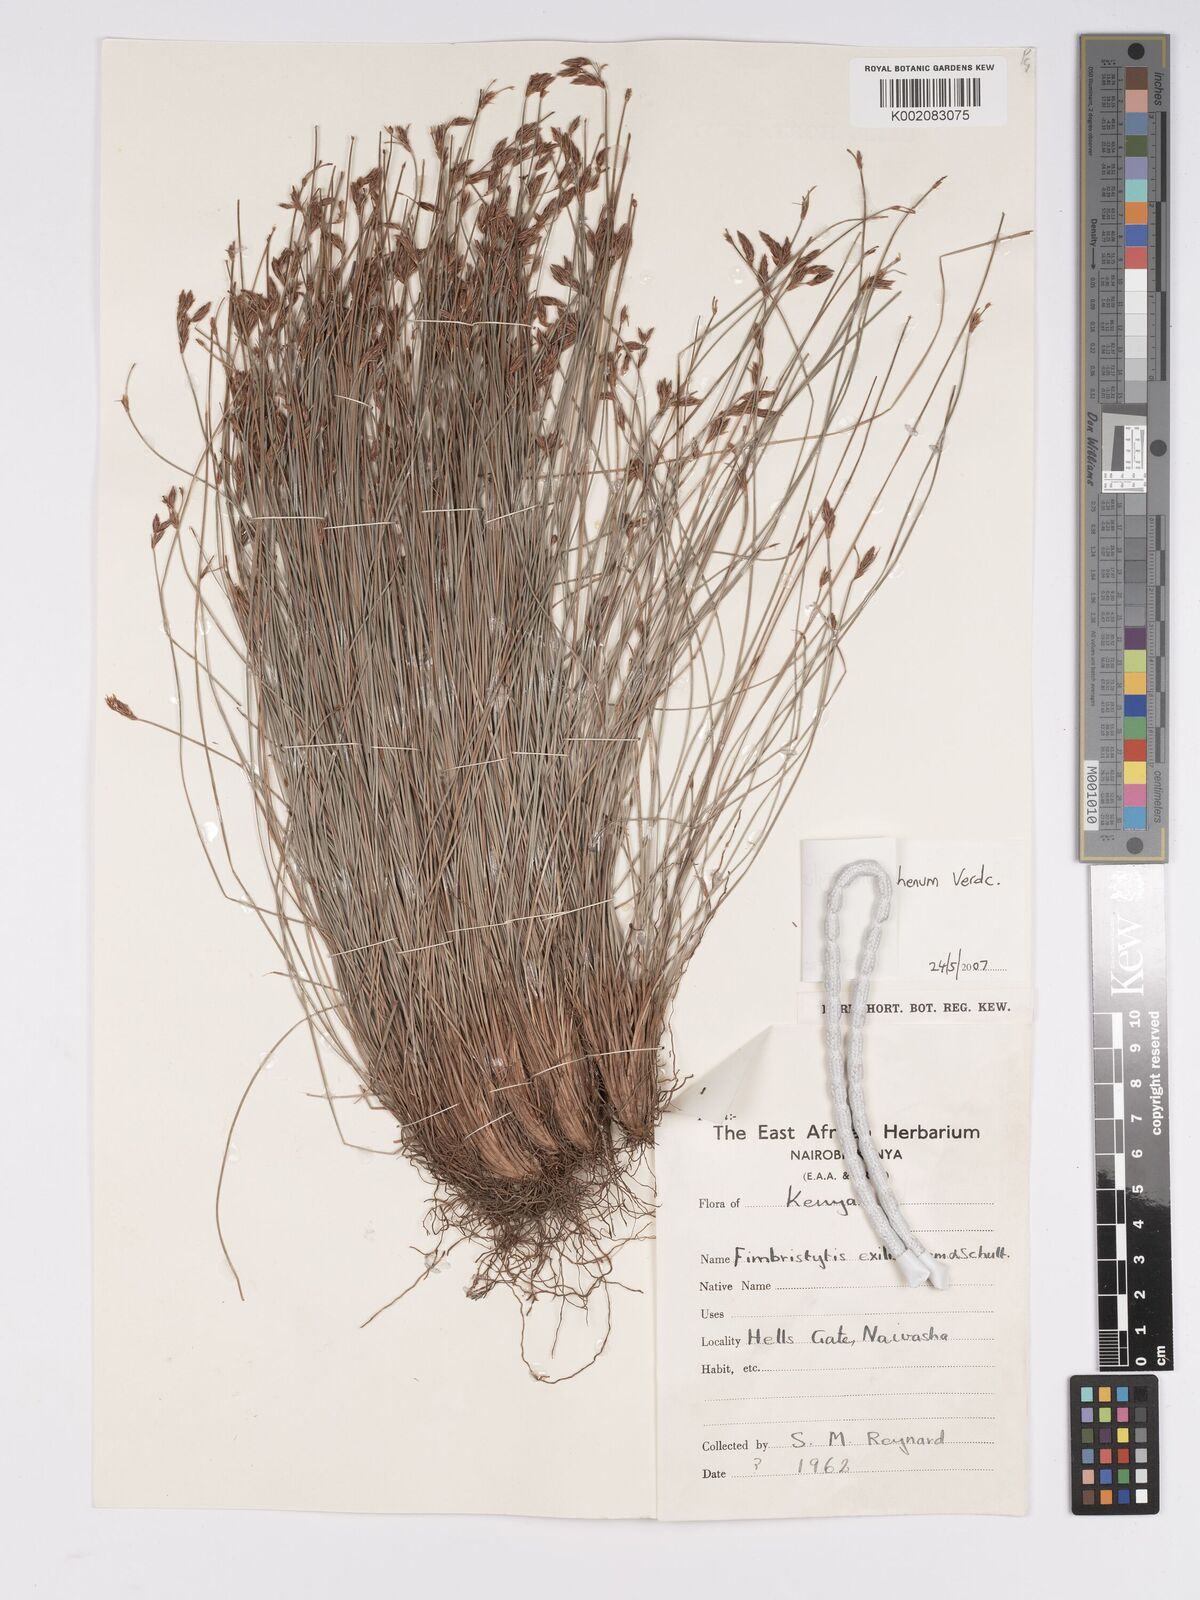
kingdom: Plantae
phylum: Tracheophyta
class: Liliopsida
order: Poales
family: Cyperaceae
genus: Bulbostylis
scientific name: Bulbostylis mlangoyajehenum
